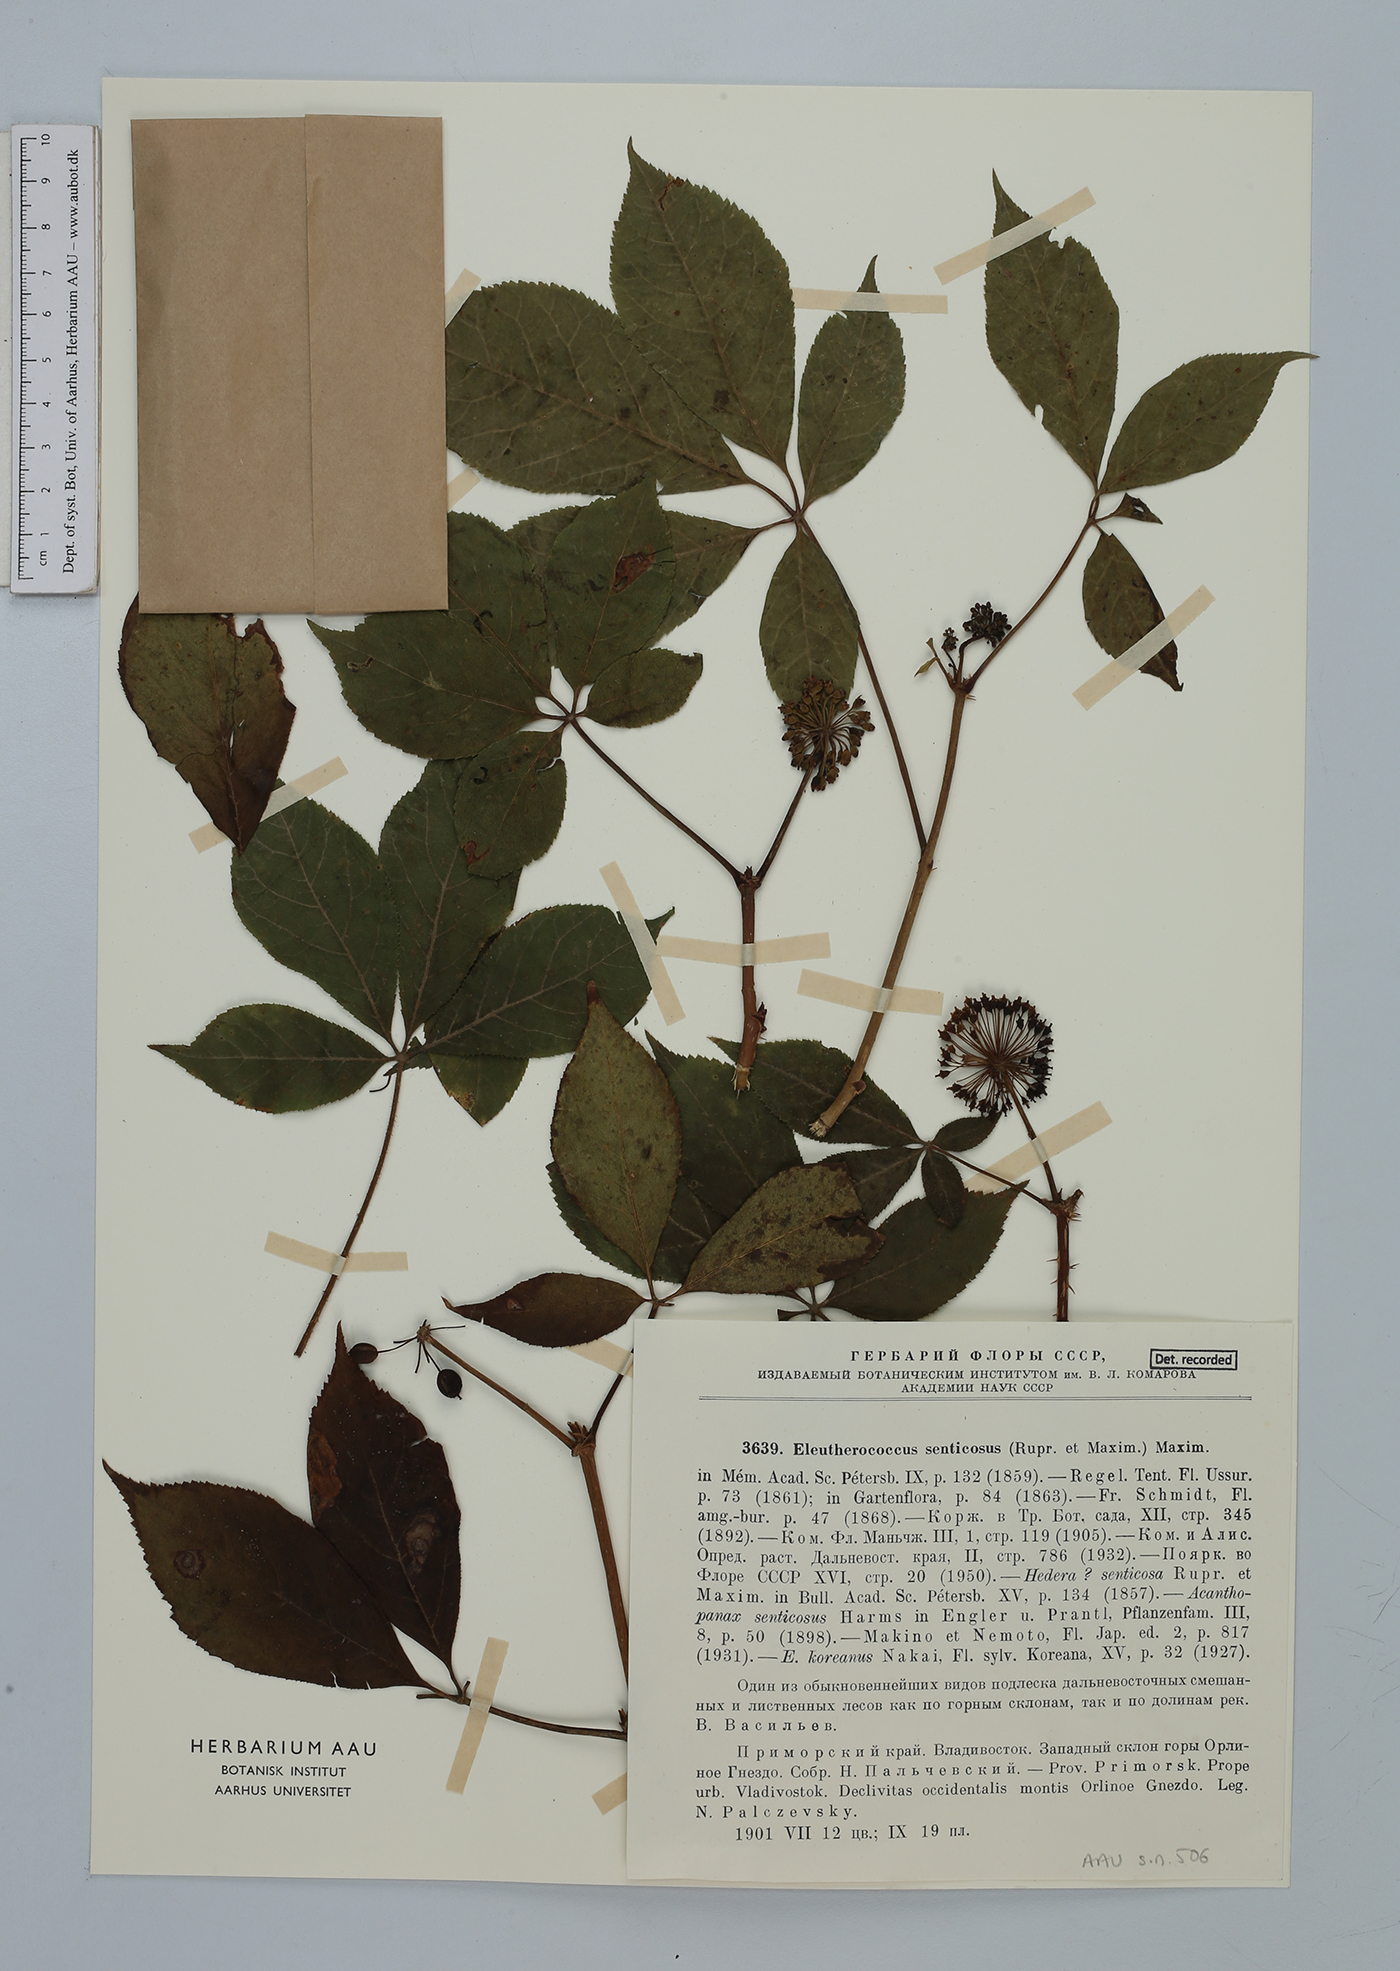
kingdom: Plantae
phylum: Tracheophyta
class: Magnoliopsida
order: Apiales
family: Araliaceae
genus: Eleutherococcus
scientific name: Eleutherococcus senticosus
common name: Siberian-ginseng
